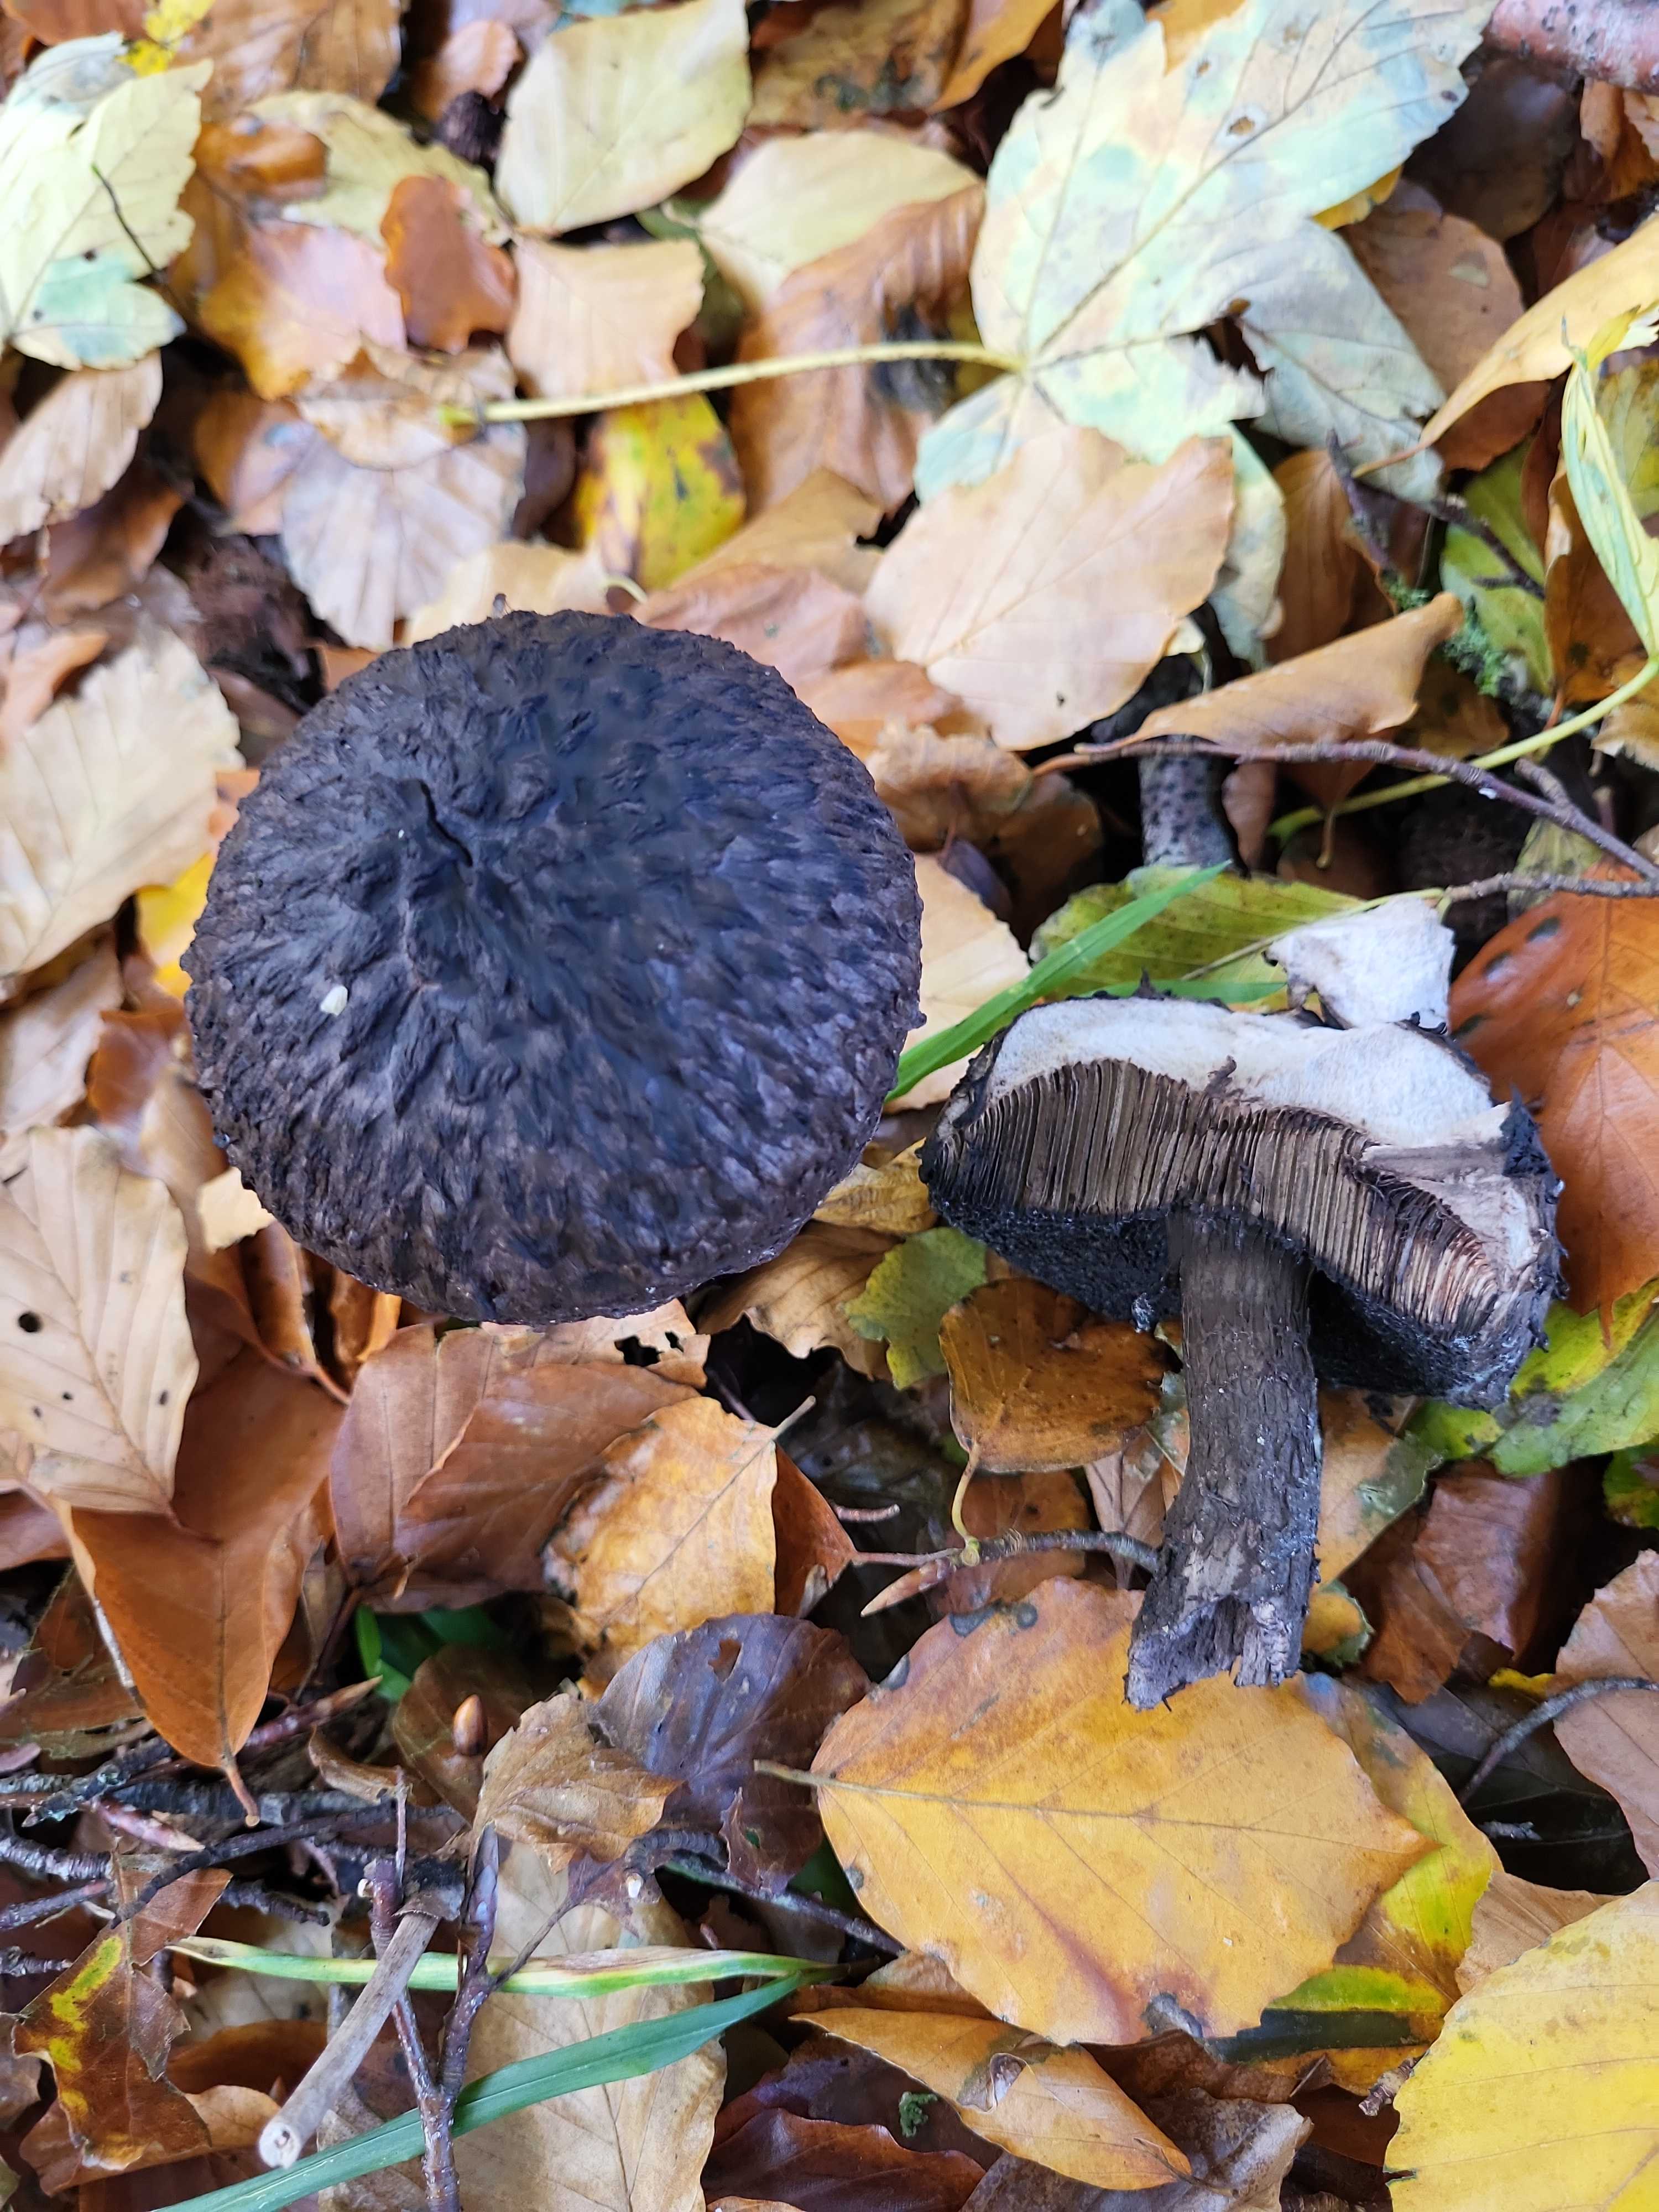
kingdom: Fungi
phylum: Basidiomycota
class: Agaricomycetes
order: Boletales
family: Boletaceae
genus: Strobilomyces
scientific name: Strobilomyces strobilaceus
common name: koglerørhat
